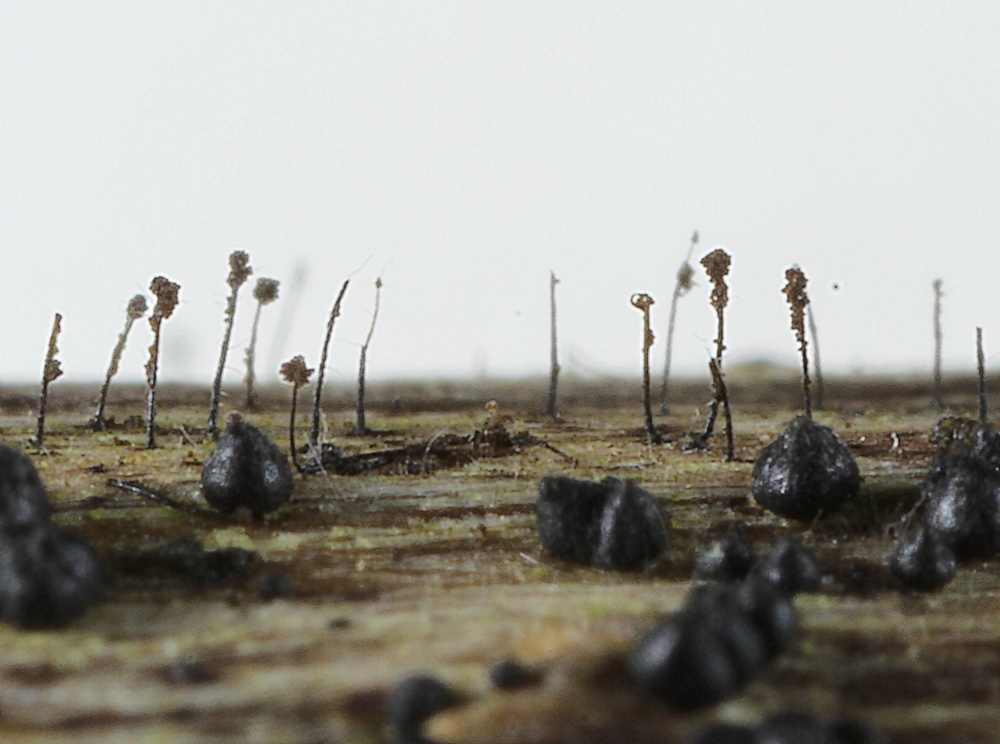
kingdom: Fungi
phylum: Ascomycota
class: Dothideomycetes
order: Pleosporales
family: Periconiaceae
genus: Periconia
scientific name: Periconia cookei
